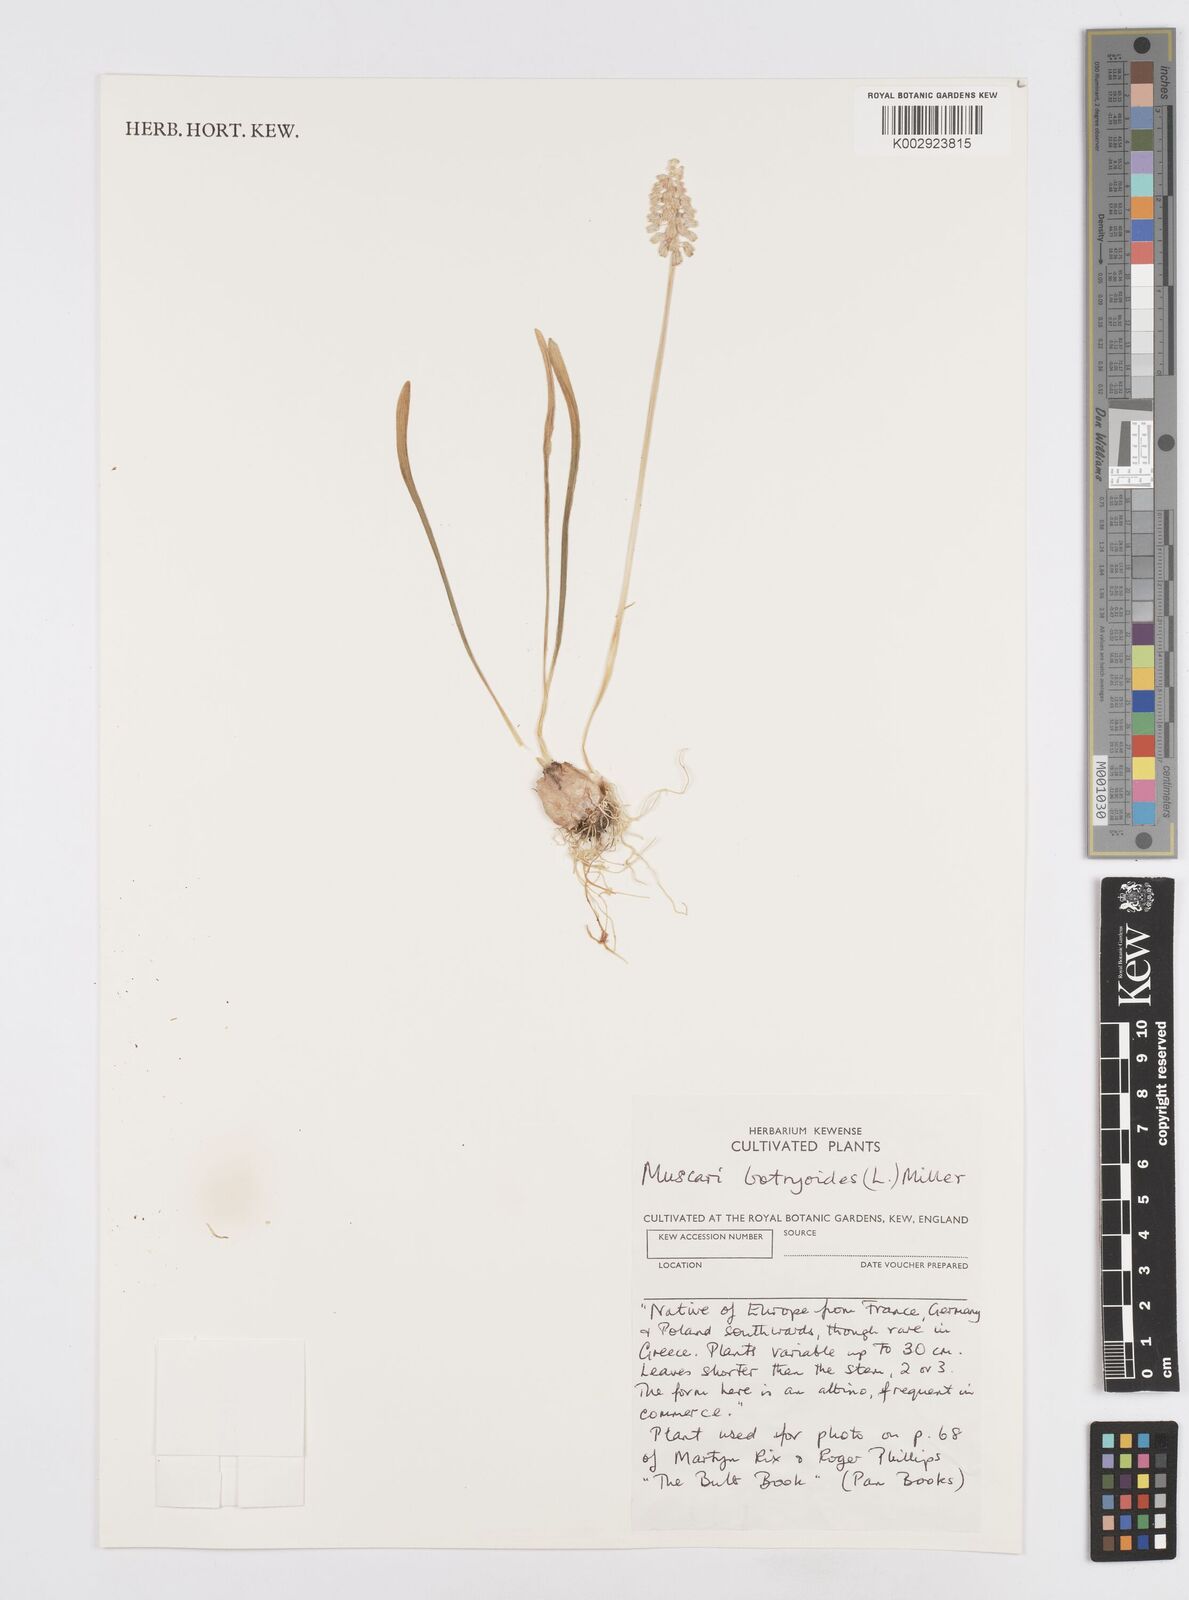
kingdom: Plantae
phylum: Tracheophyta
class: Liliopsida
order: Asparagales
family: Asparagaceae
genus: Muscari
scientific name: Muscari botryoides
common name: Compact grape-hyacinth
